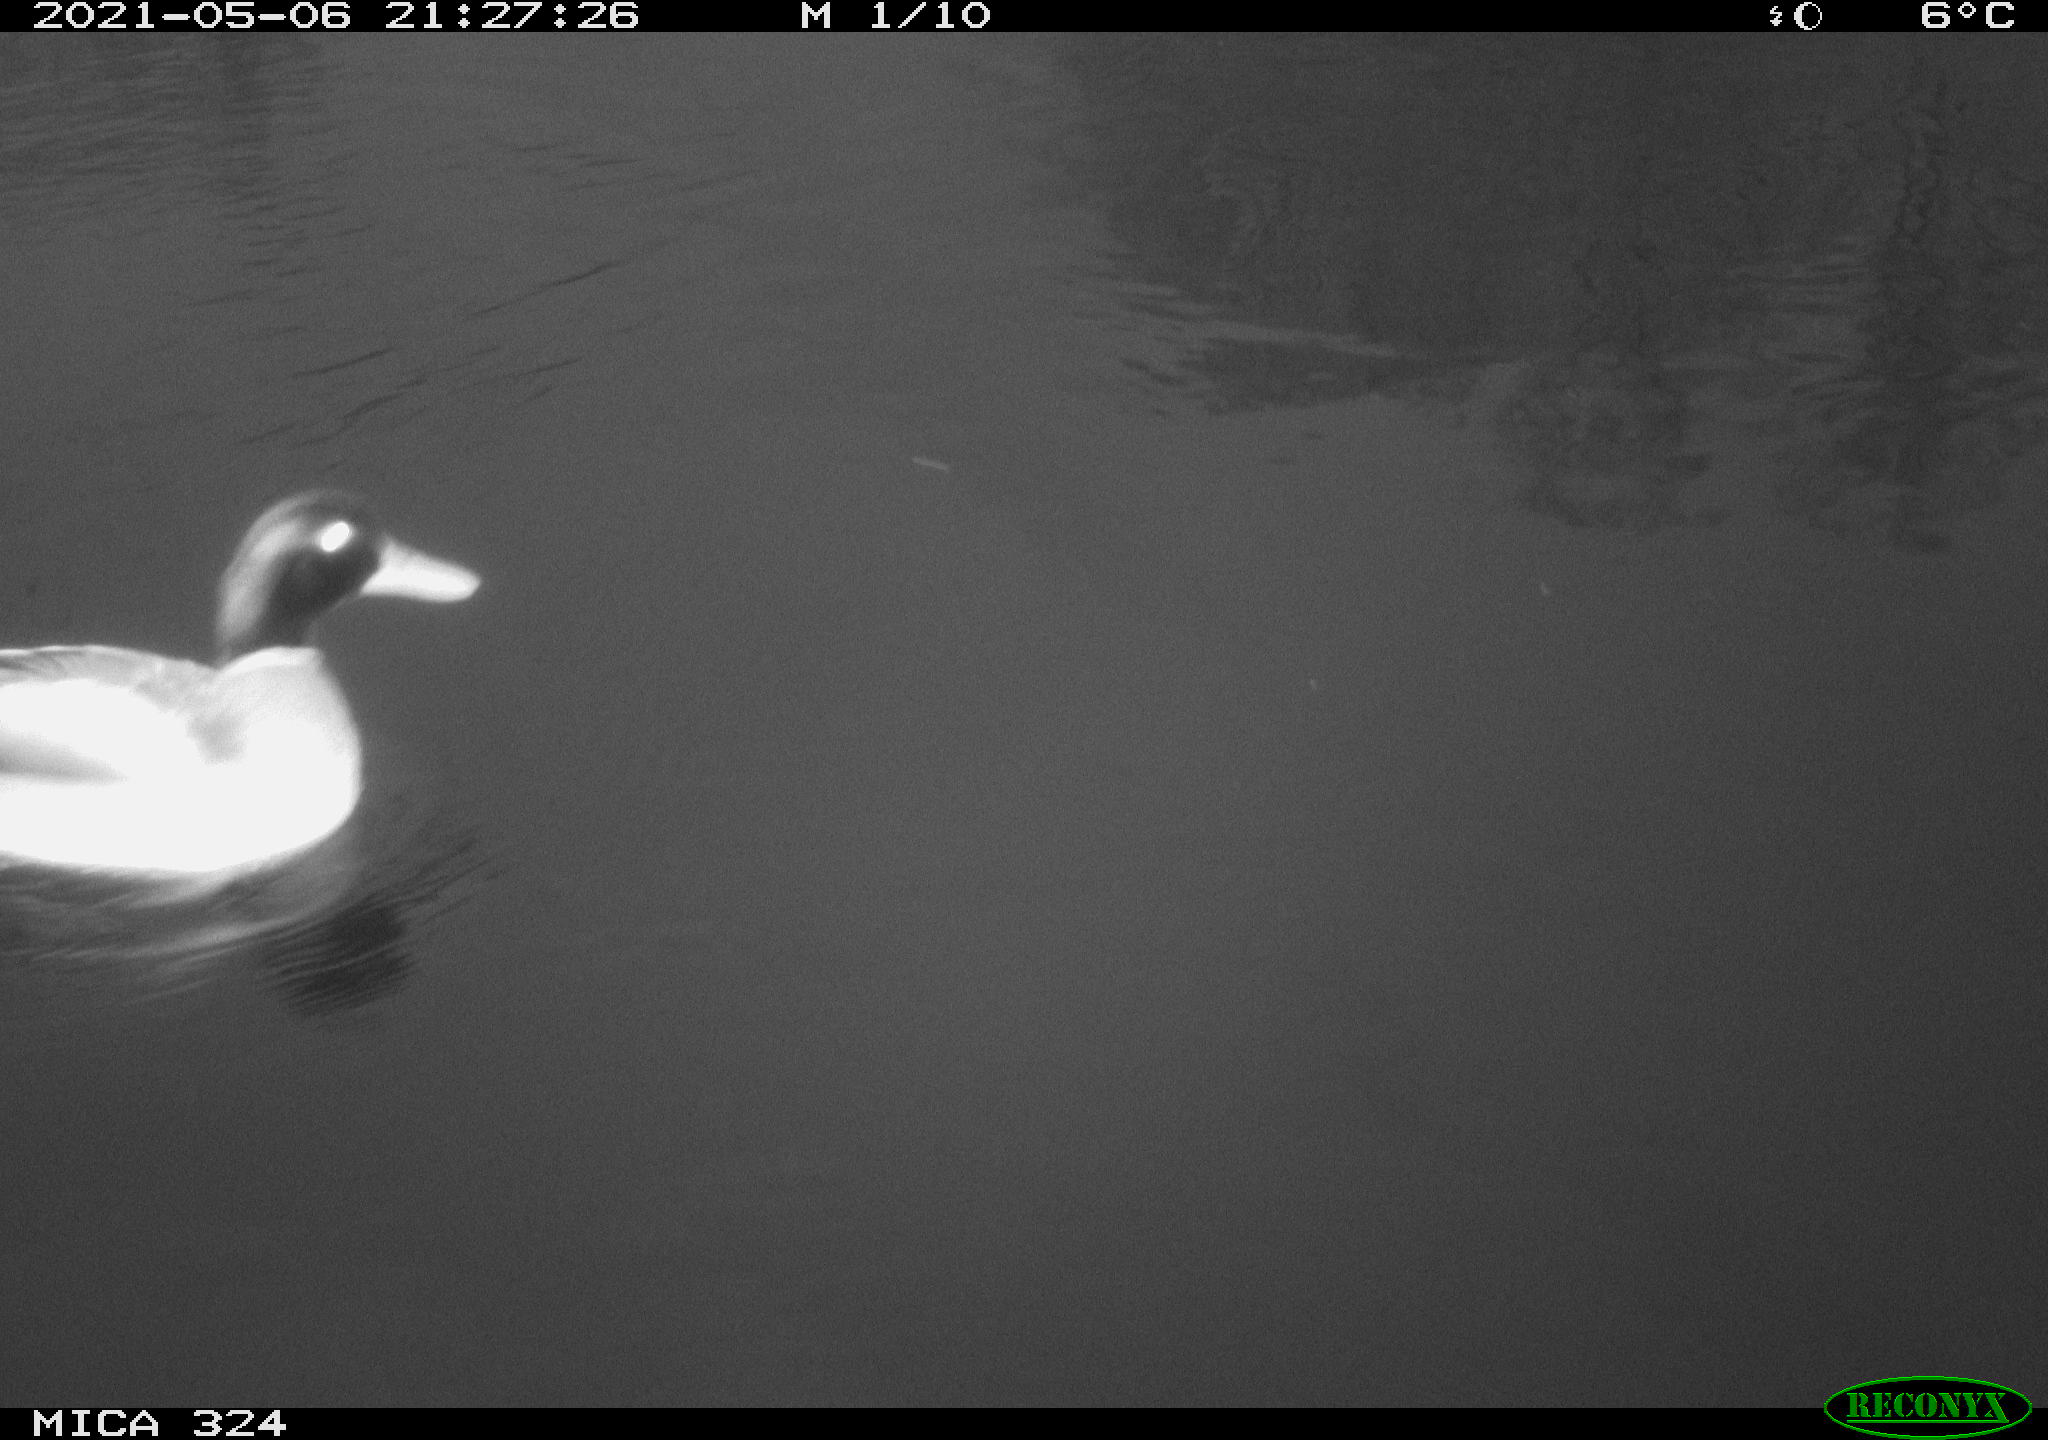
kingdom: Animalia
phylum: Chordata
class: Aves
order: Anseriformes
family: Anatidae
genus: Anas
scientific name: Anas platyrhynchos
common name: Mallard
